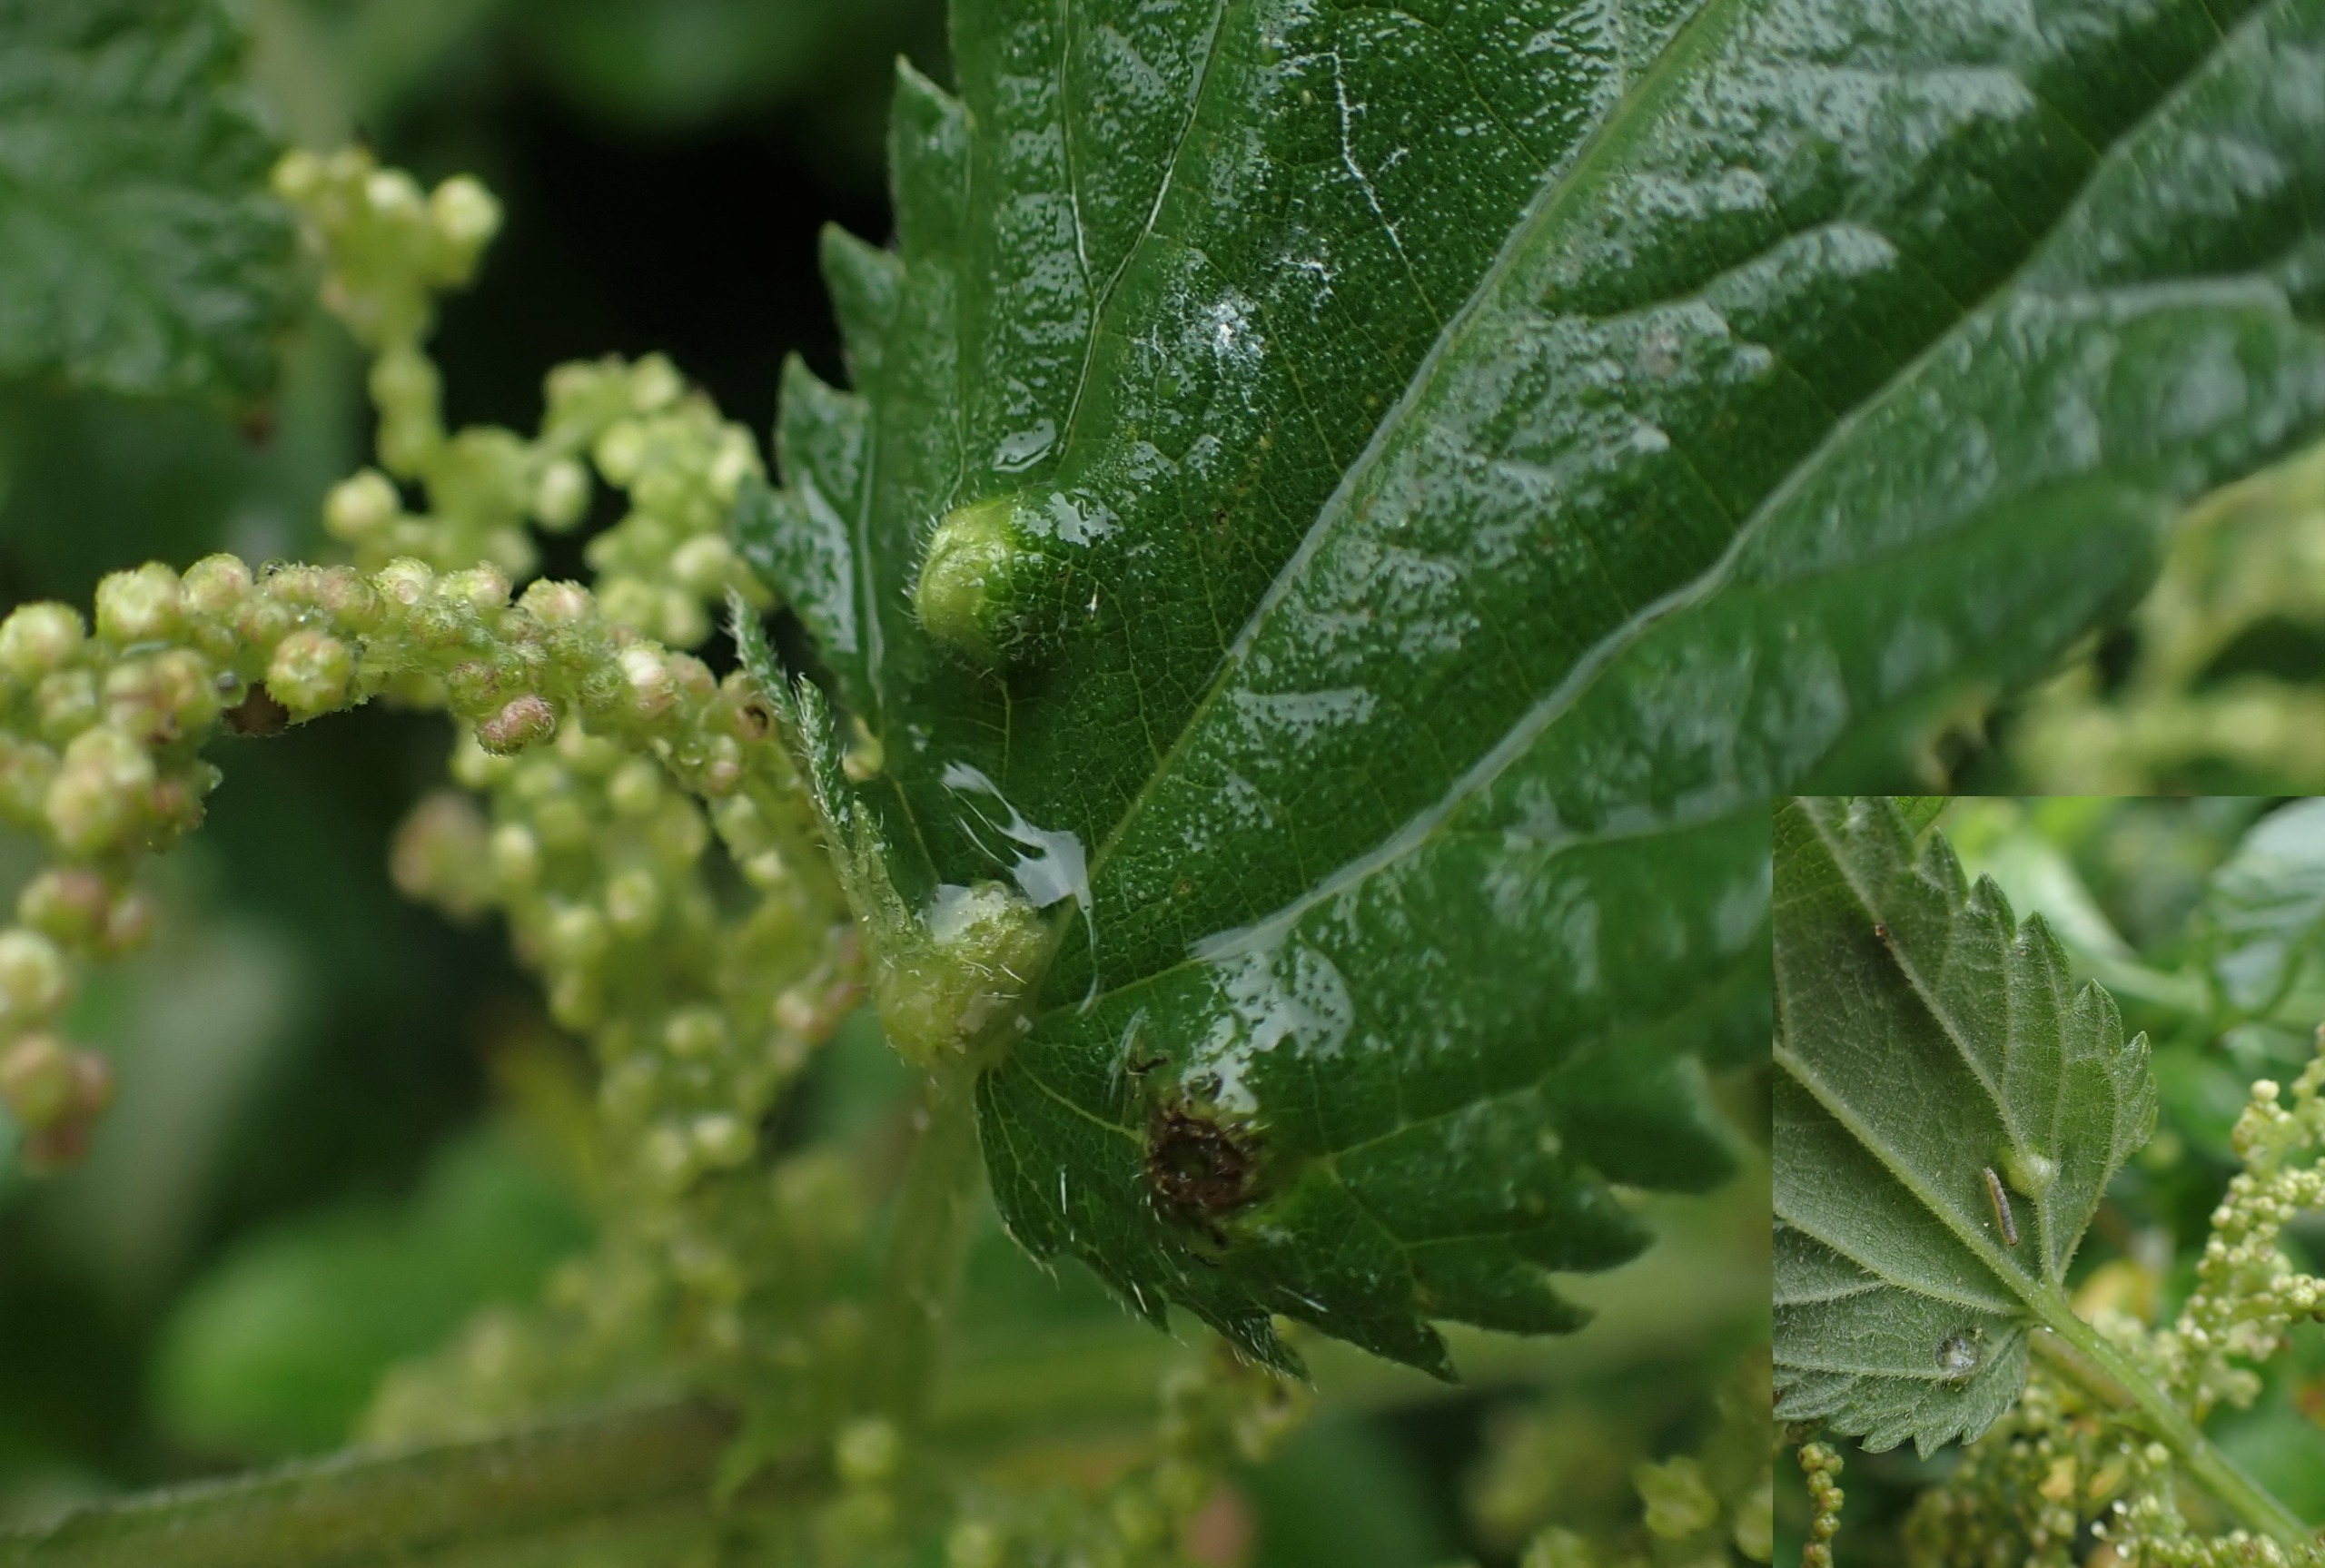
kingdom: Animalia
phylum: Arthropoda
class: Insecta
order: Diptera
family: Cecidomyiidae
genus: Dasineura
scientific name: Dasineura urticae
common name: Nældepunggalmyg
